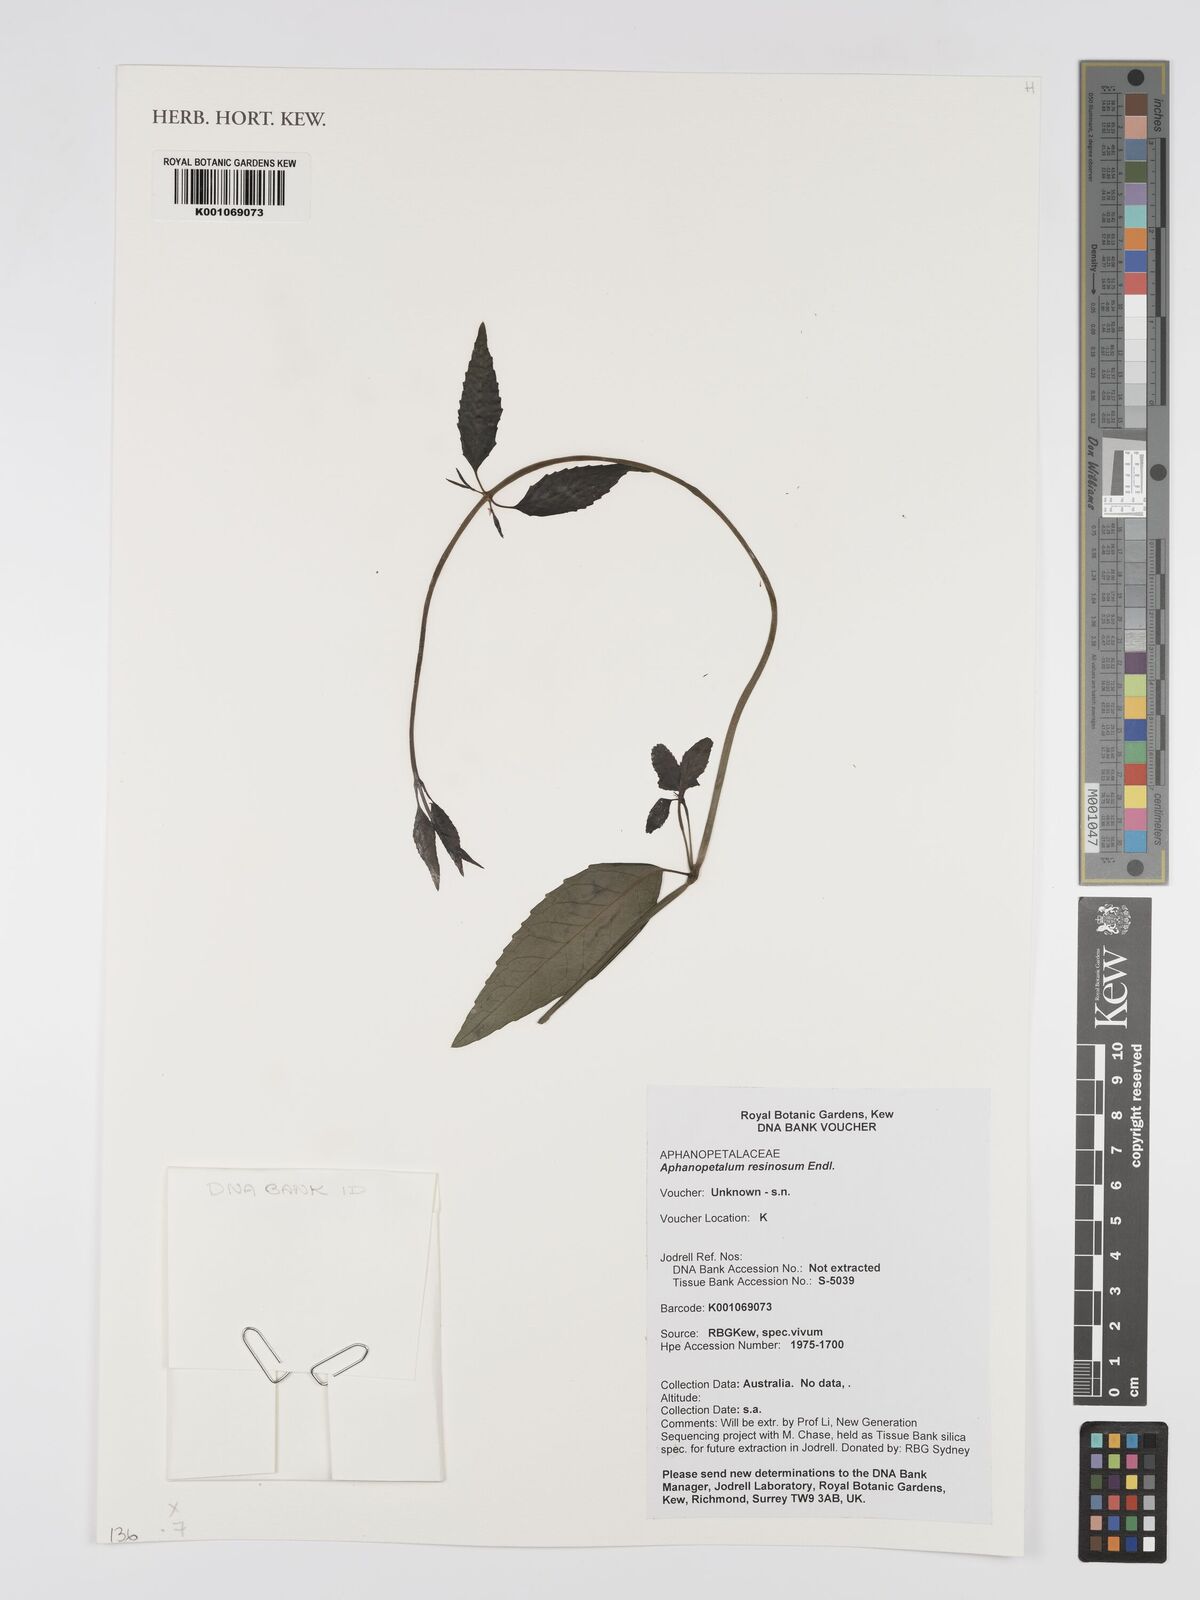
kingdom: Plantae
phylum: Tracheophyta
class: Magnoliopsida
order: Saxifragales
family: Aphanopetalaceae
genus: Aphanopetalum
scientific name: Aphanopetalum resinosum
